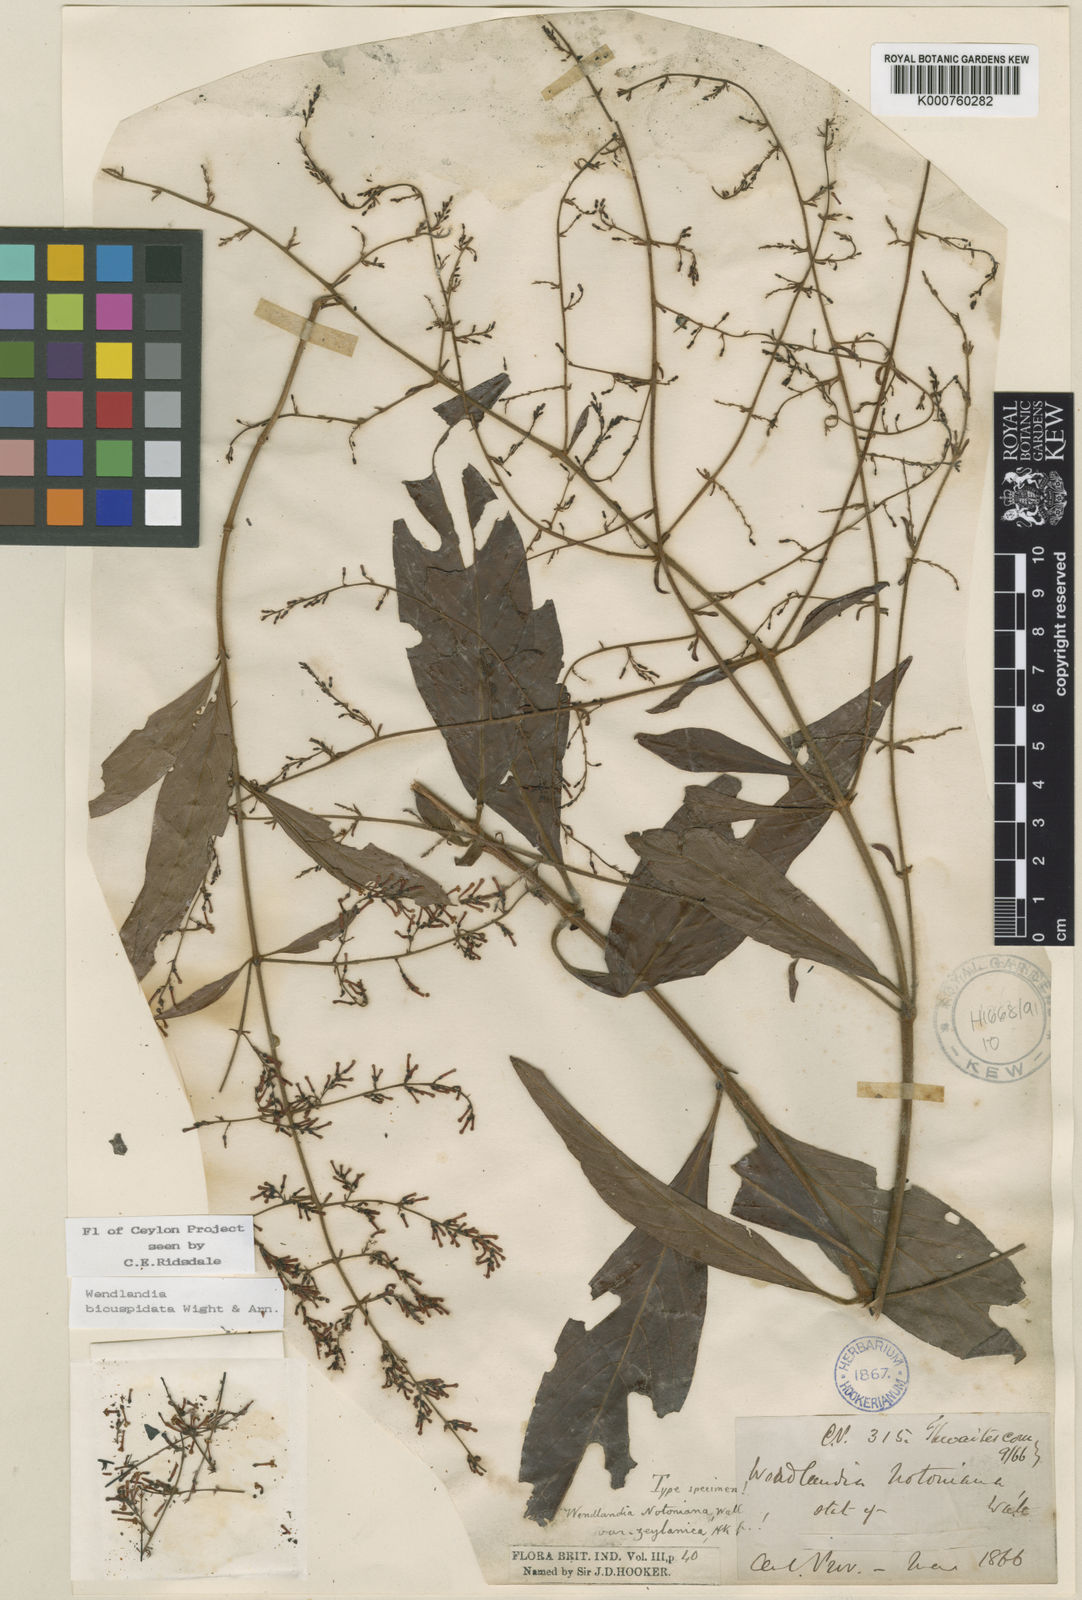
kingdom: Plantae
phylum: Tracheophyta
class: Magnoliopsida
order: Gentianales
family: Rubiaceae
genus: Wendlandia
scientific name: Wendlandia bicuspidata
